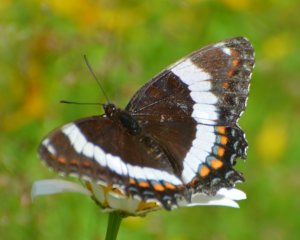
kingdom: Animalia
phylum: Arthropoda
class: Insecta
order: Lepidoptera
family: Nymphalidae
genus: Limenitis
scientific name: Limenitis arthemis
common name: Red-spotted Admiral
